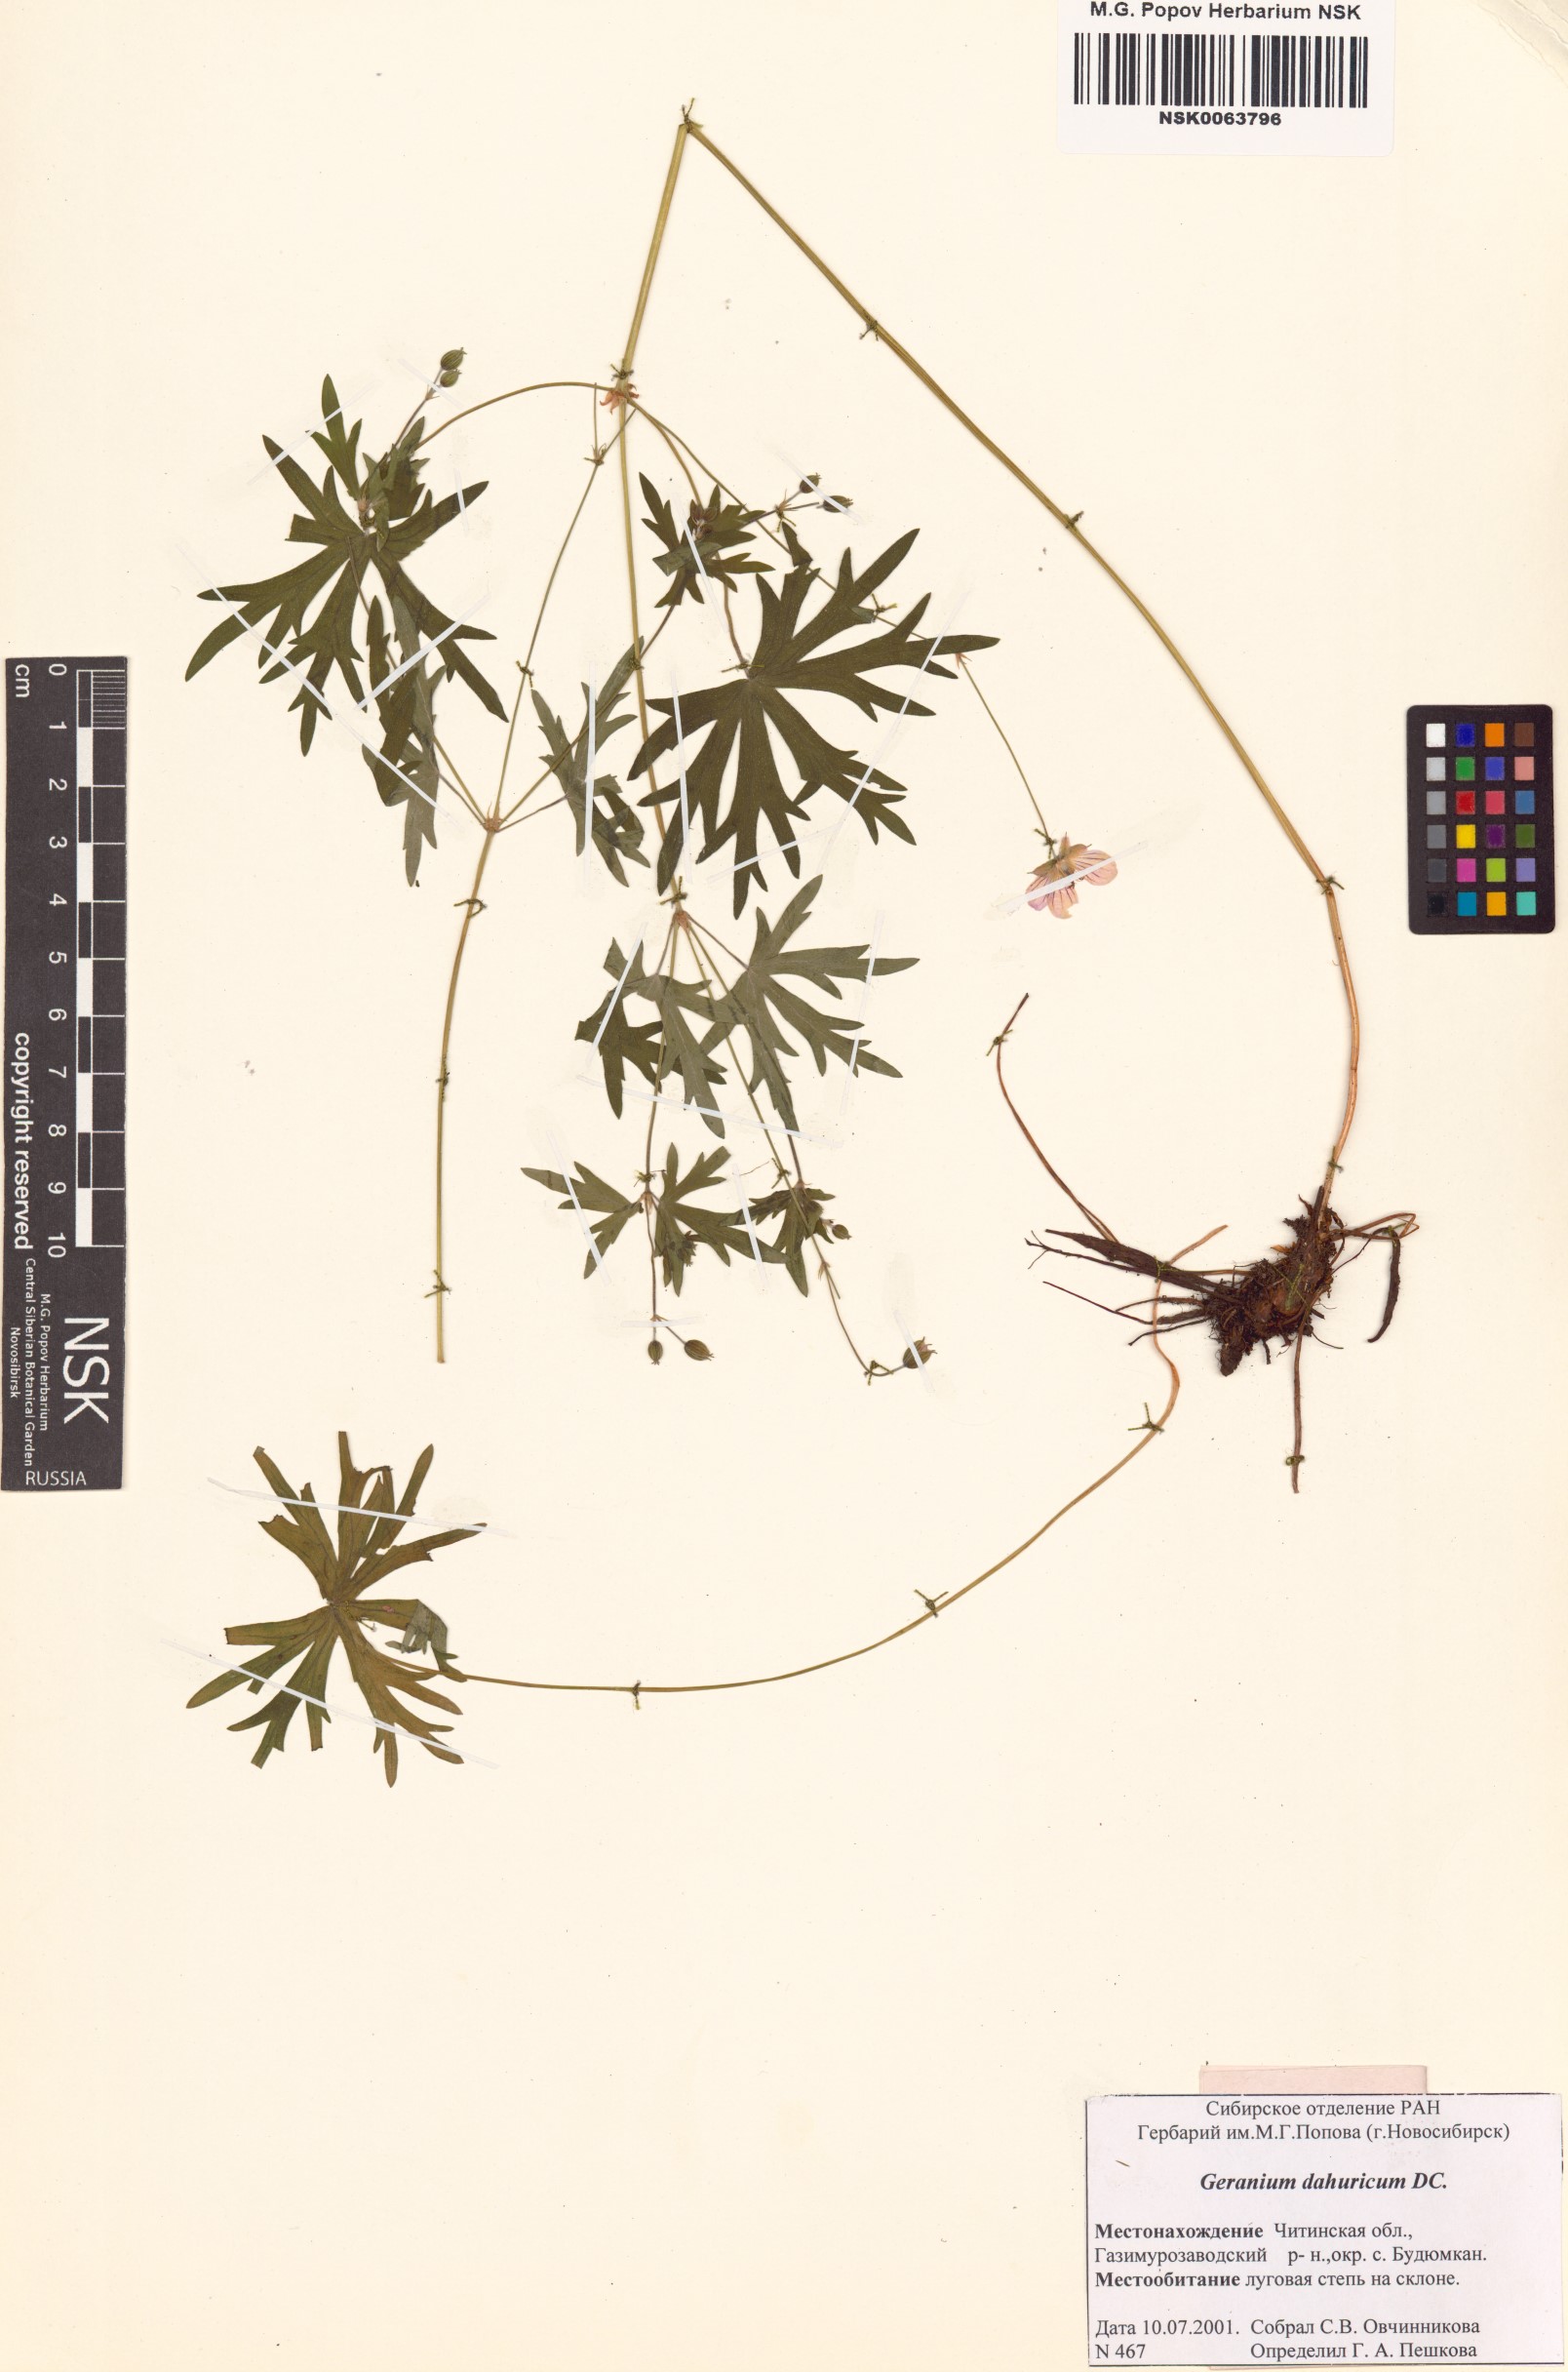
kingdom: Plantae
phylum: Tracheophyta
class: Magnoliopsida
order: Geraniales
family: Geraniaceae
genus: Geranium
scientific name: Geranium dahuricum
